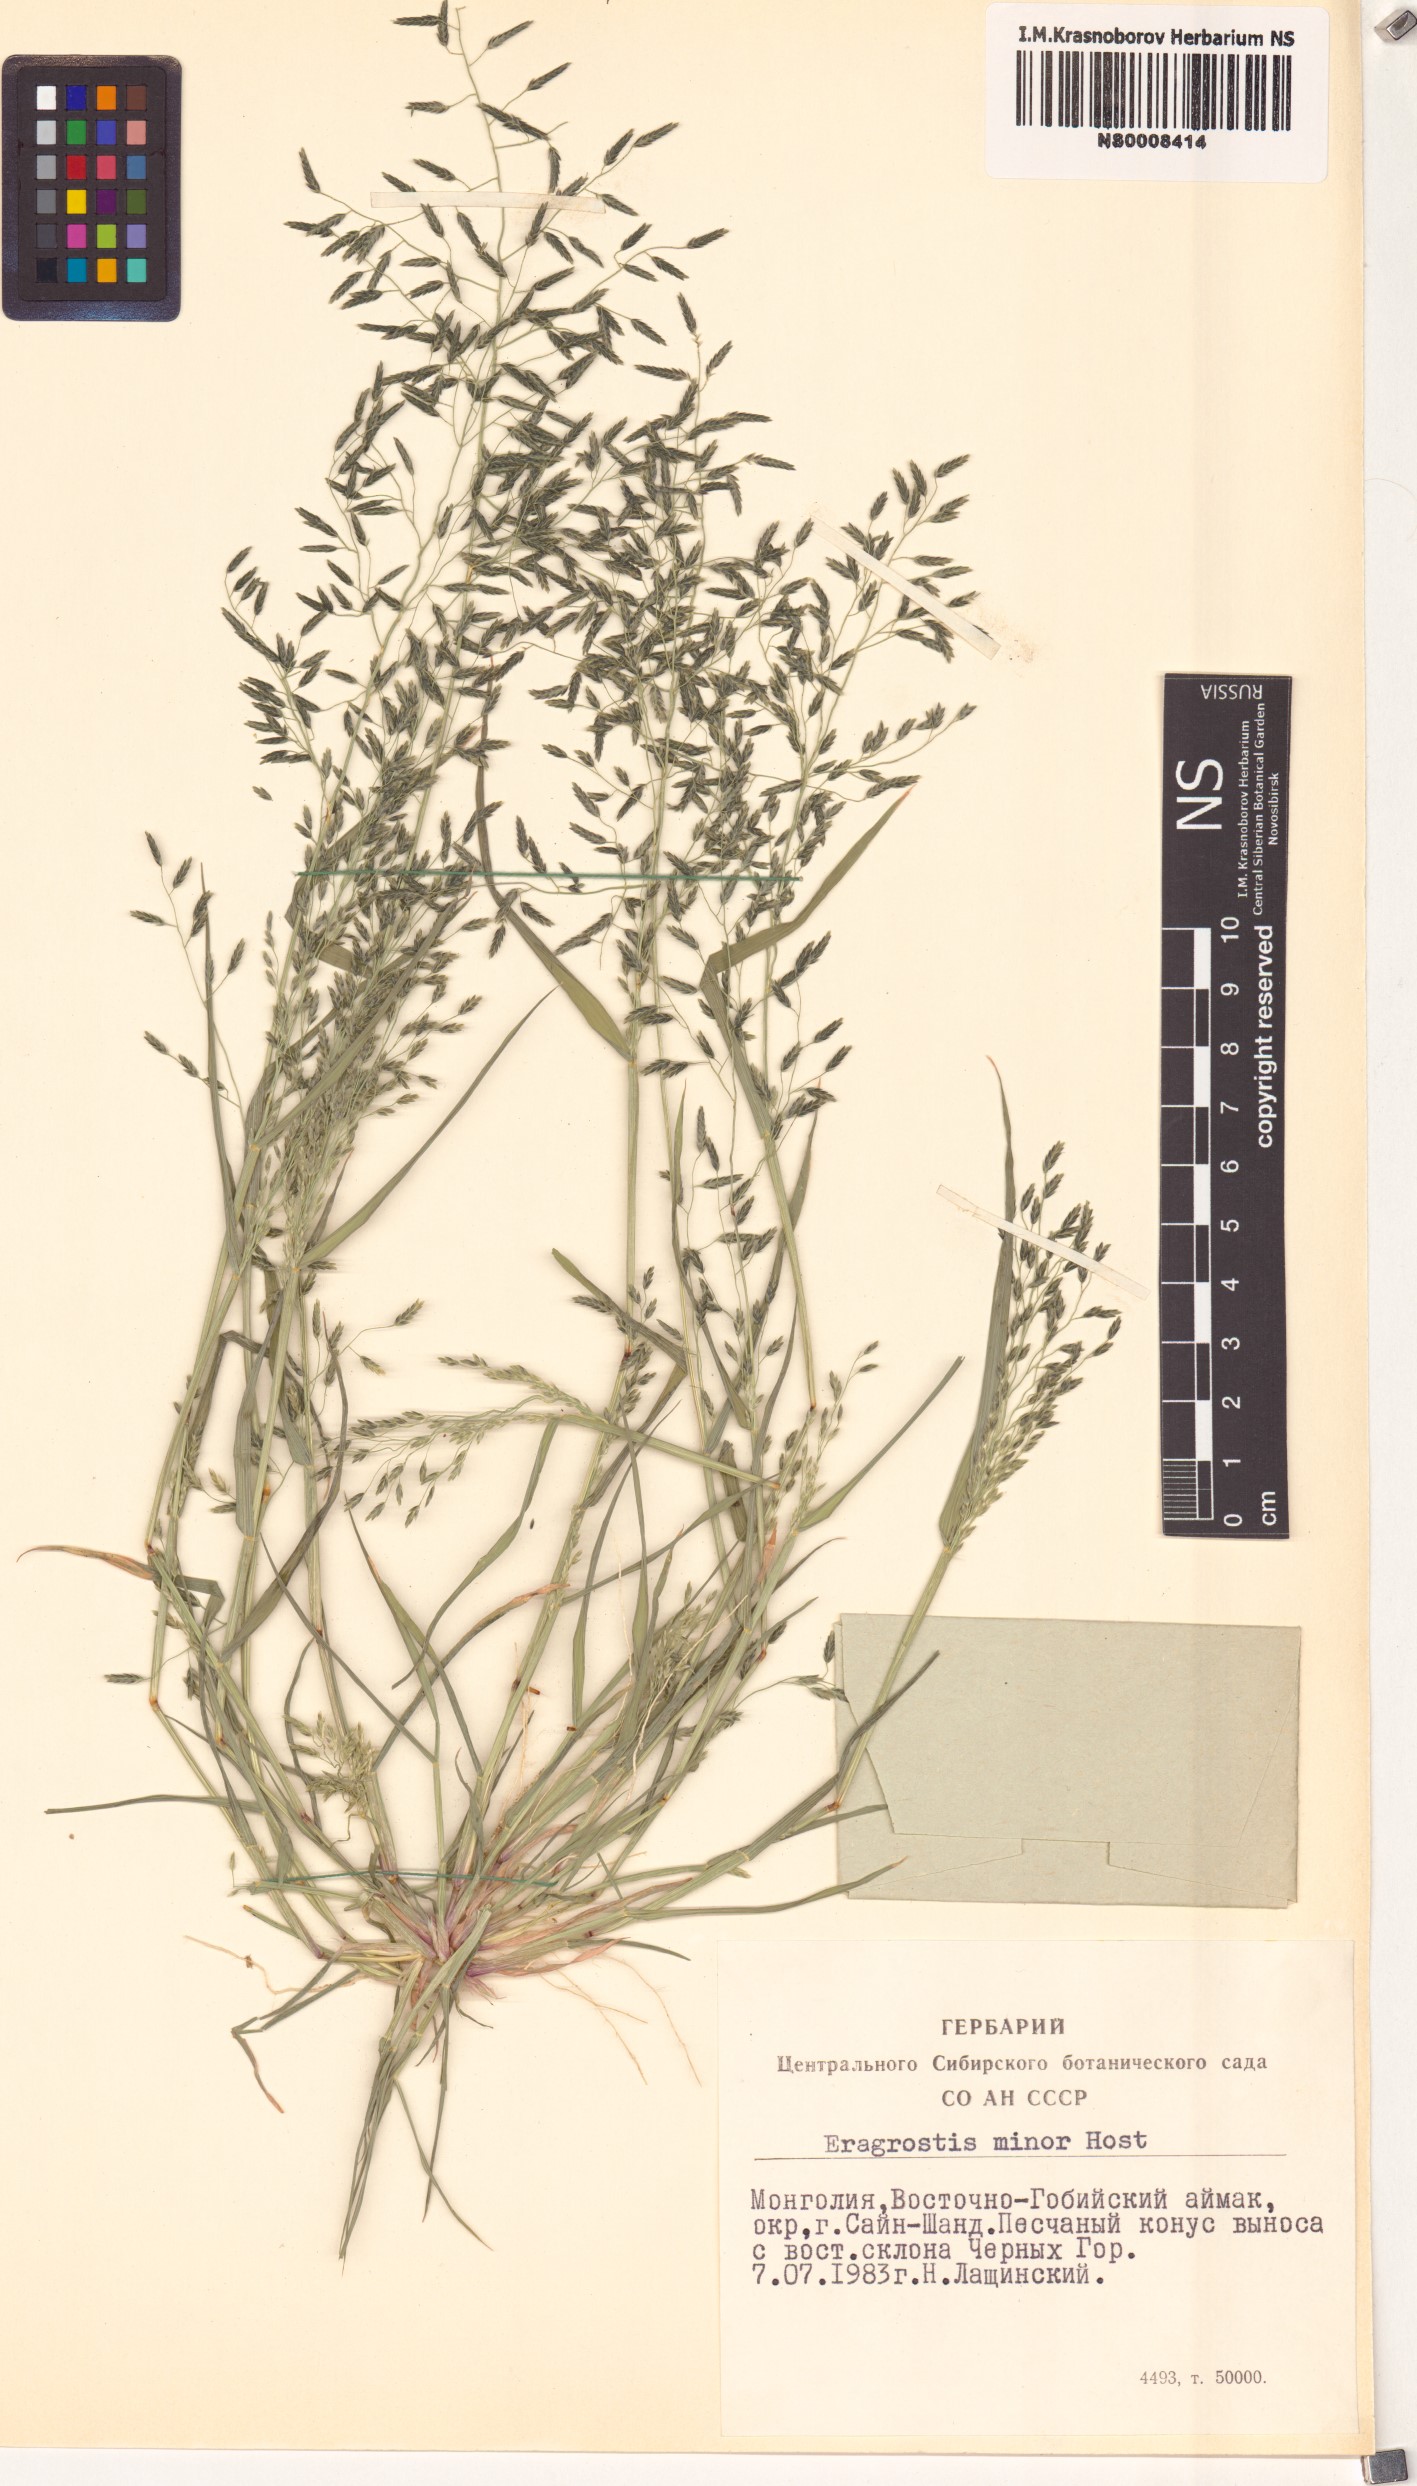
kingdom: Plantae
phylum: Tracheophyta
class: Liliopsida
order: Poales
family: Poaceae
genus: Eragrostis
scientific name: Eragrostis minor
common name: Small love-grass
